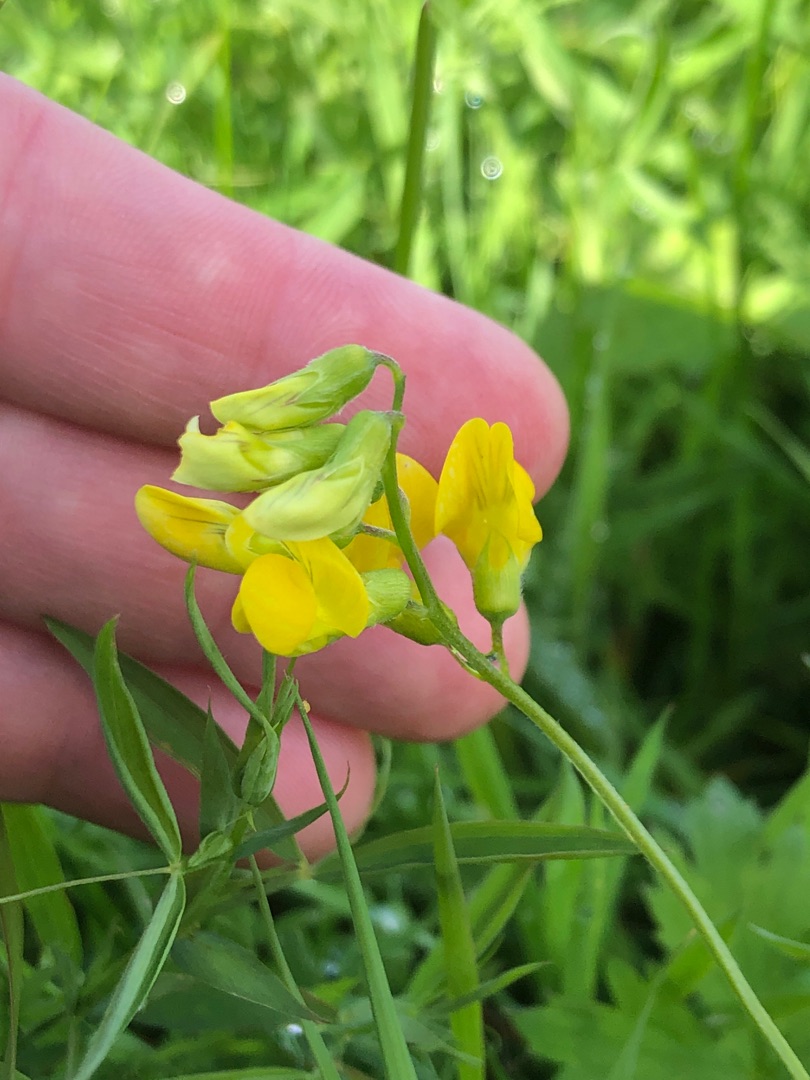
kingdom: Plantae
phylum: Tracheophyta
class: Magnoliopsida
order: Fabales
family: Fabaceae
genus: Lathyrus
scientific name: Lathyrus pratensis
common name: Gul fladbælg
